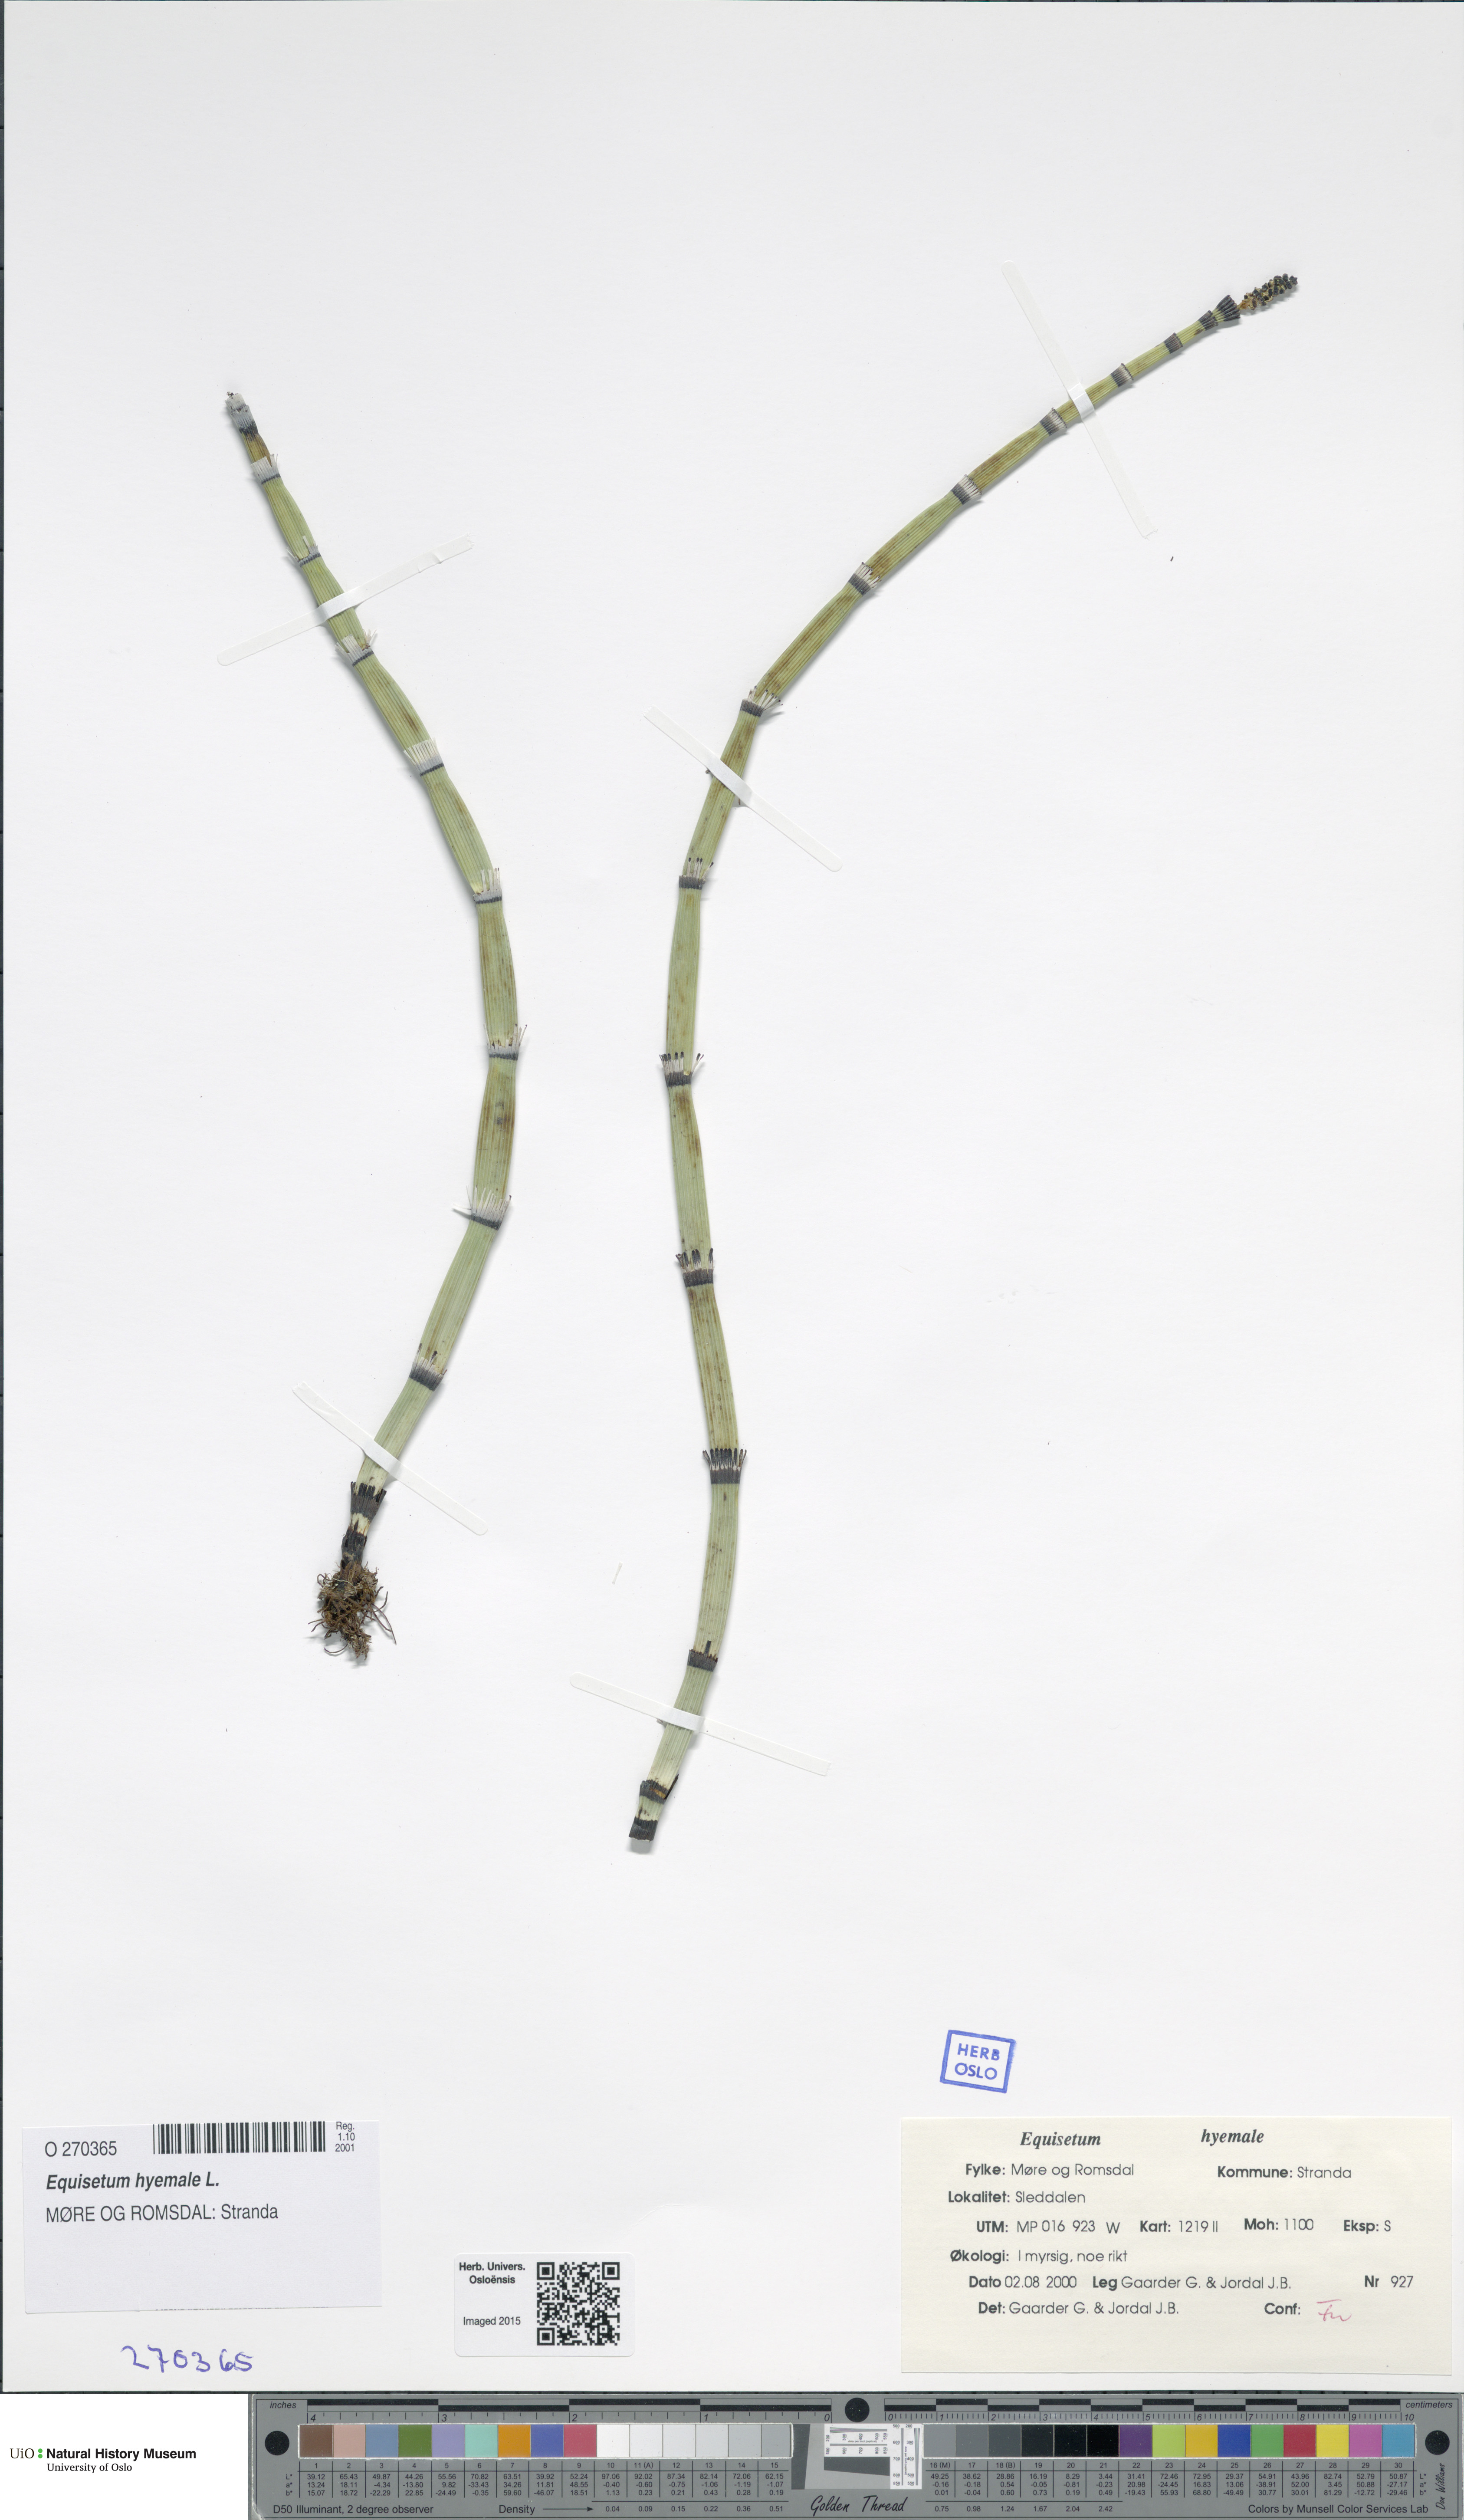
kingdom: Plantae
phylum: Tracheophyta
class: Polypodiopsida
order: Equisetales
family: Equisetaceae
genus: Equisetum
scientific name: Equisetum hyemale
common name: Rough horsetail
